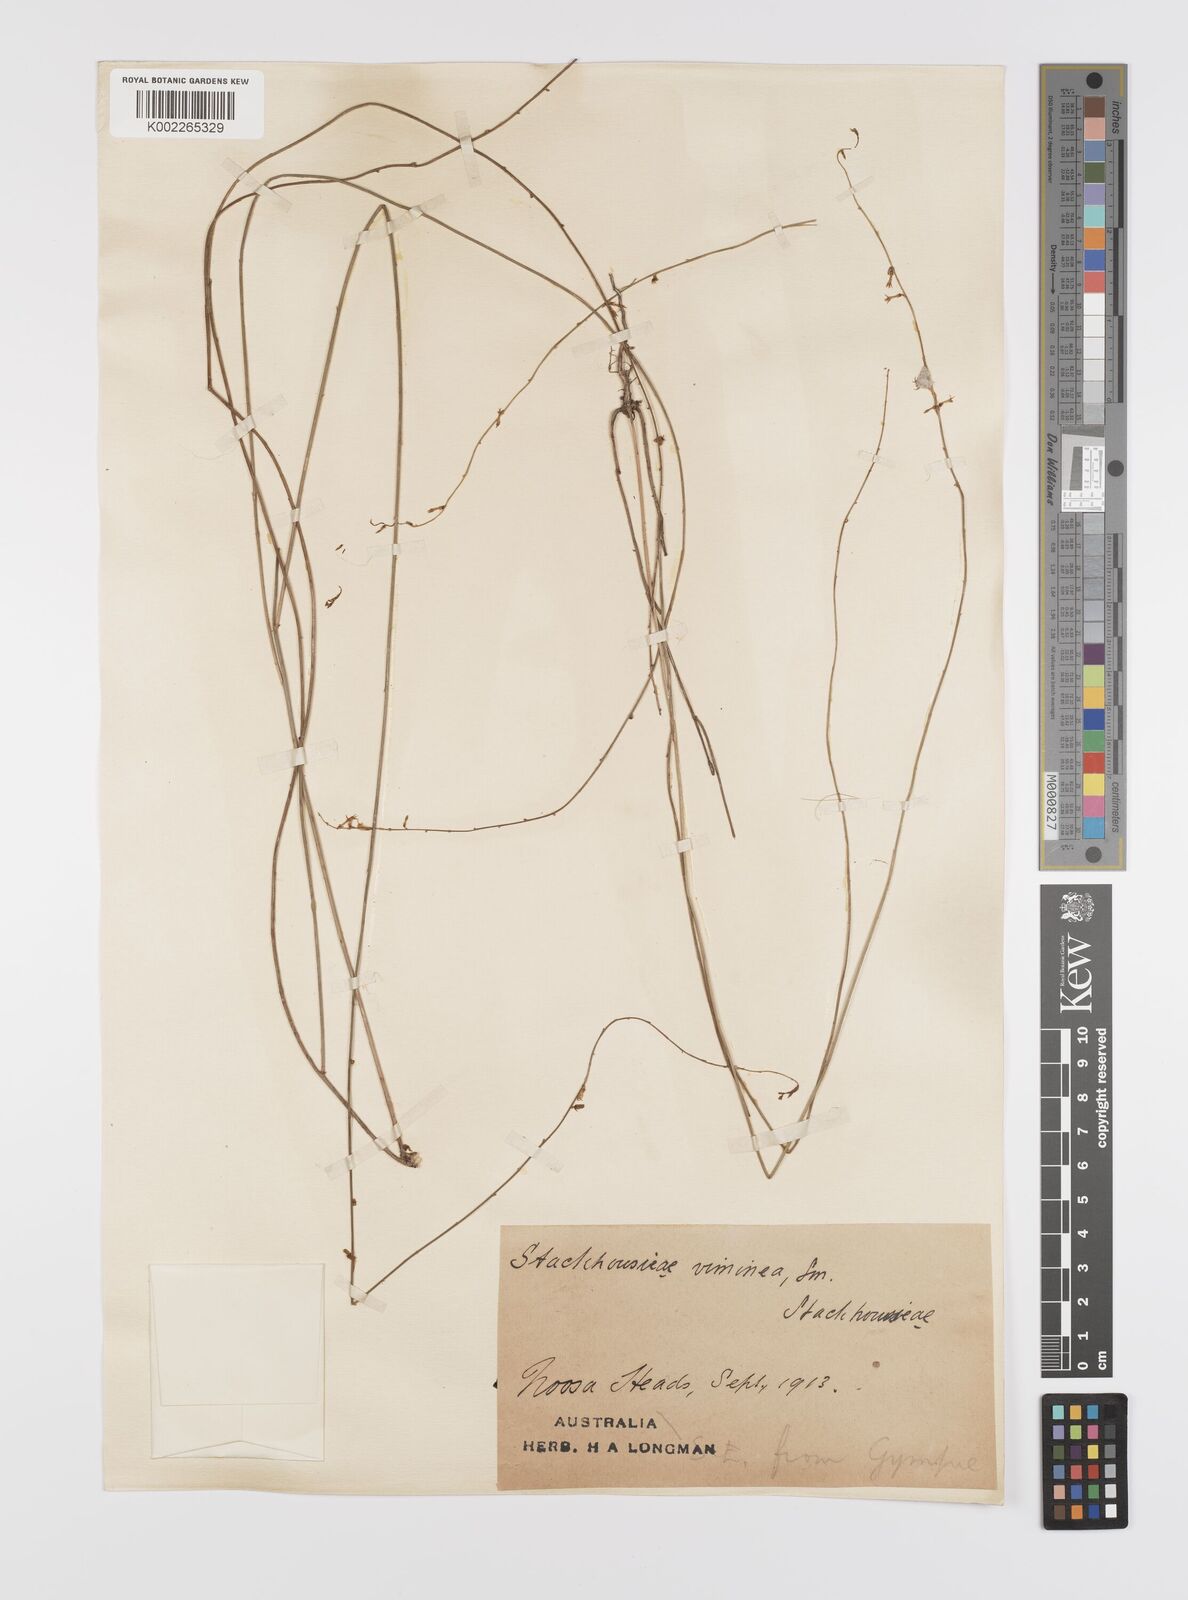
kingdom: Plantae
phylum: Tracheophyta
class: Magnoliopsida
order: Celastrales
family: Celastraceae
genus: Stackhousia
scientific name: Stackhousia viminea
